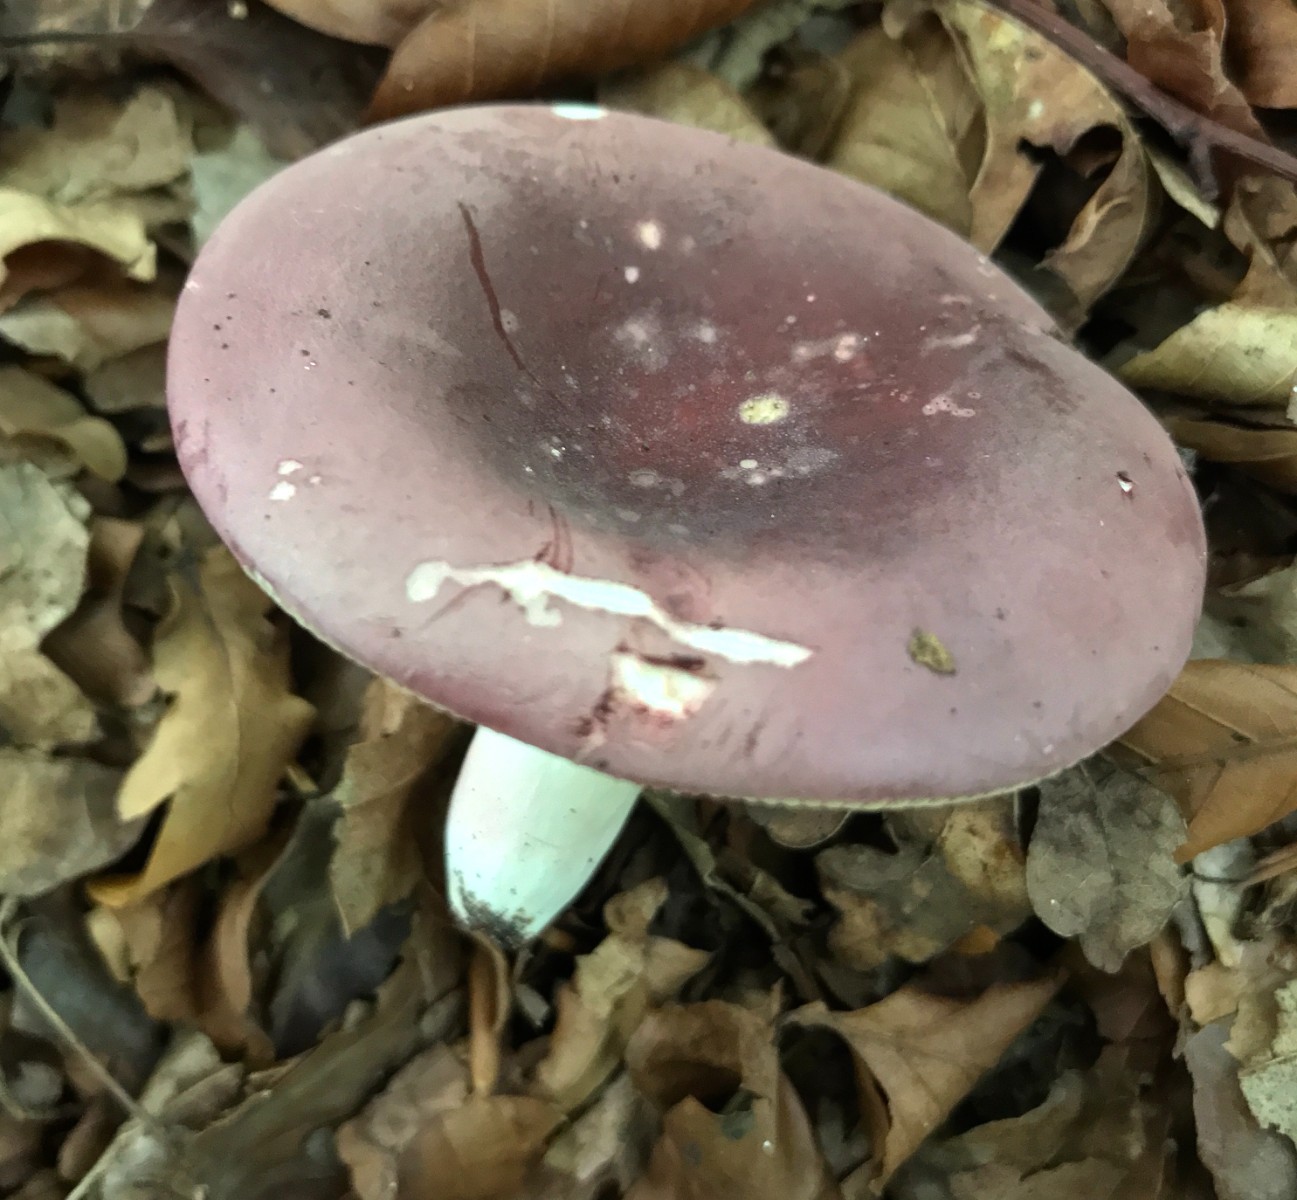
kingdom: Fungi
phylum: Basidiomycota
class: Agaricomycetes
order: Russulales
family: Russulaceae
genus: Russula
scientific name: Russula olivacea
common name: stor skørhat
